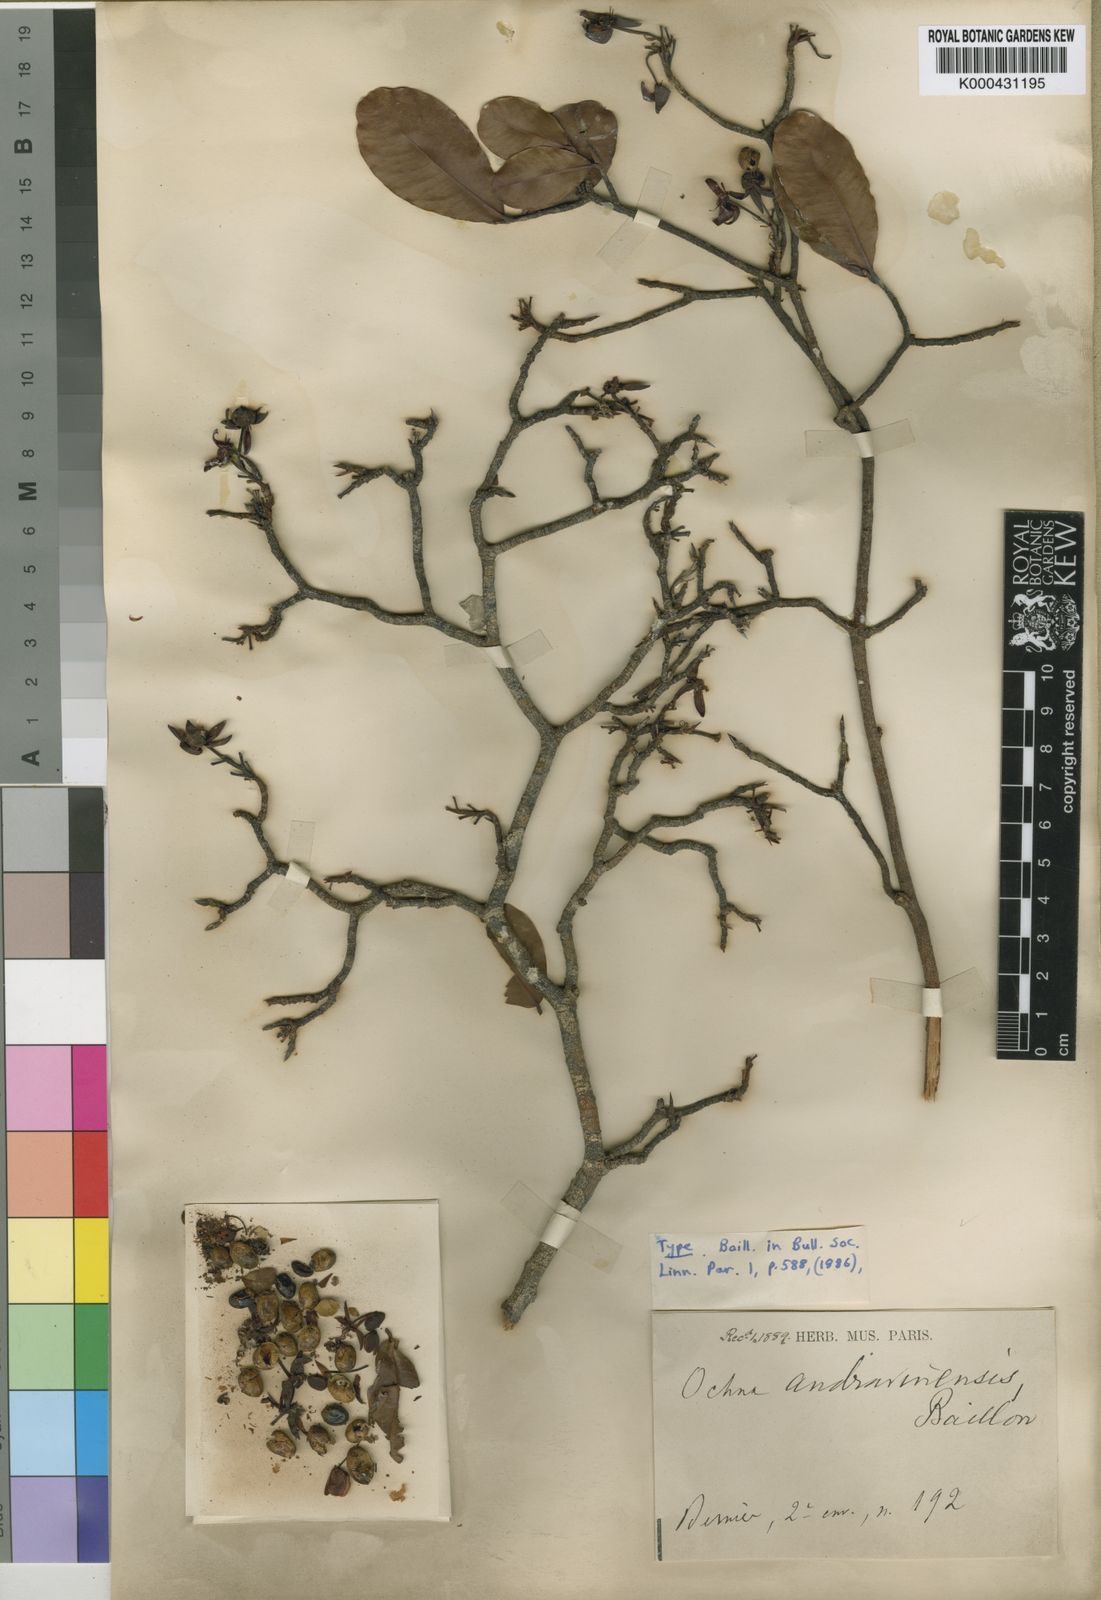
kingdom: Plantae
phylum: Tracheophyta
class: Magnoliopsida
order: Malpighiales
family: Ochnaceae
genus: Ochna
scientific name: Ochna andravinensis
